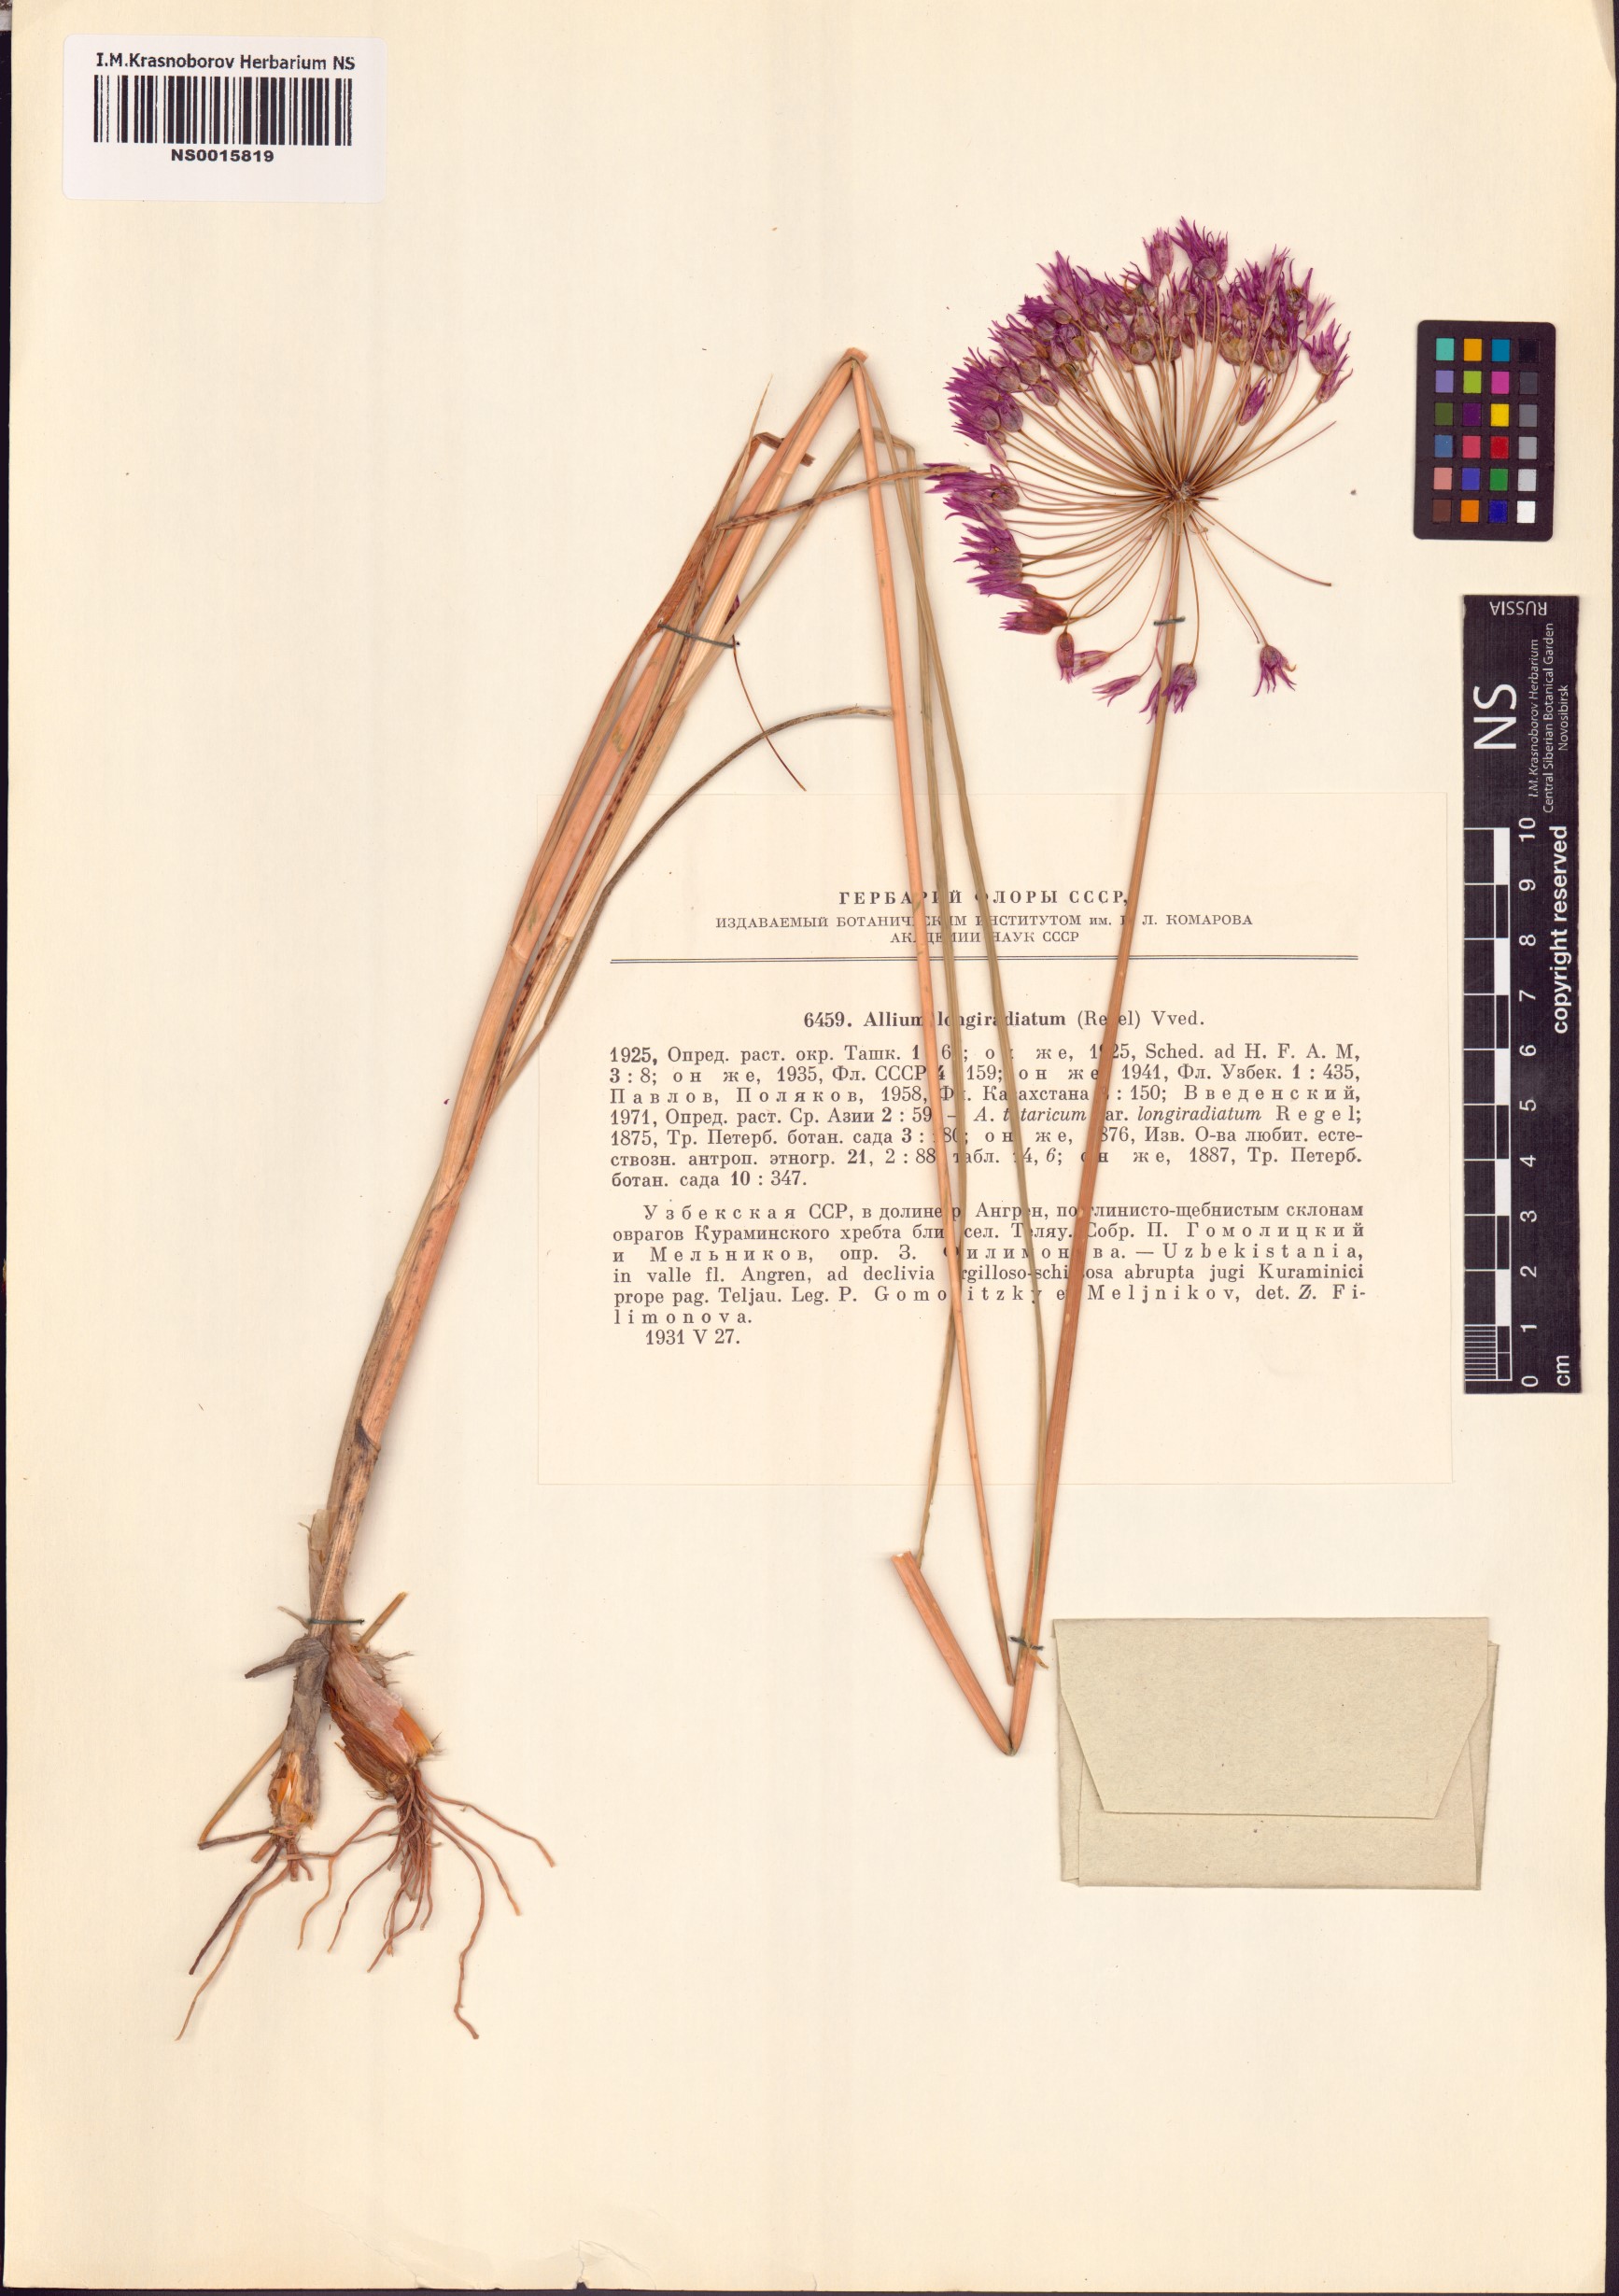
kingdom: Plantae
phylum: Tracheophyta
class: Liliopsida
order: Asparagales
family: Amaryllidaceae
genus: Allium
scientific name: Allium longiradiatum
